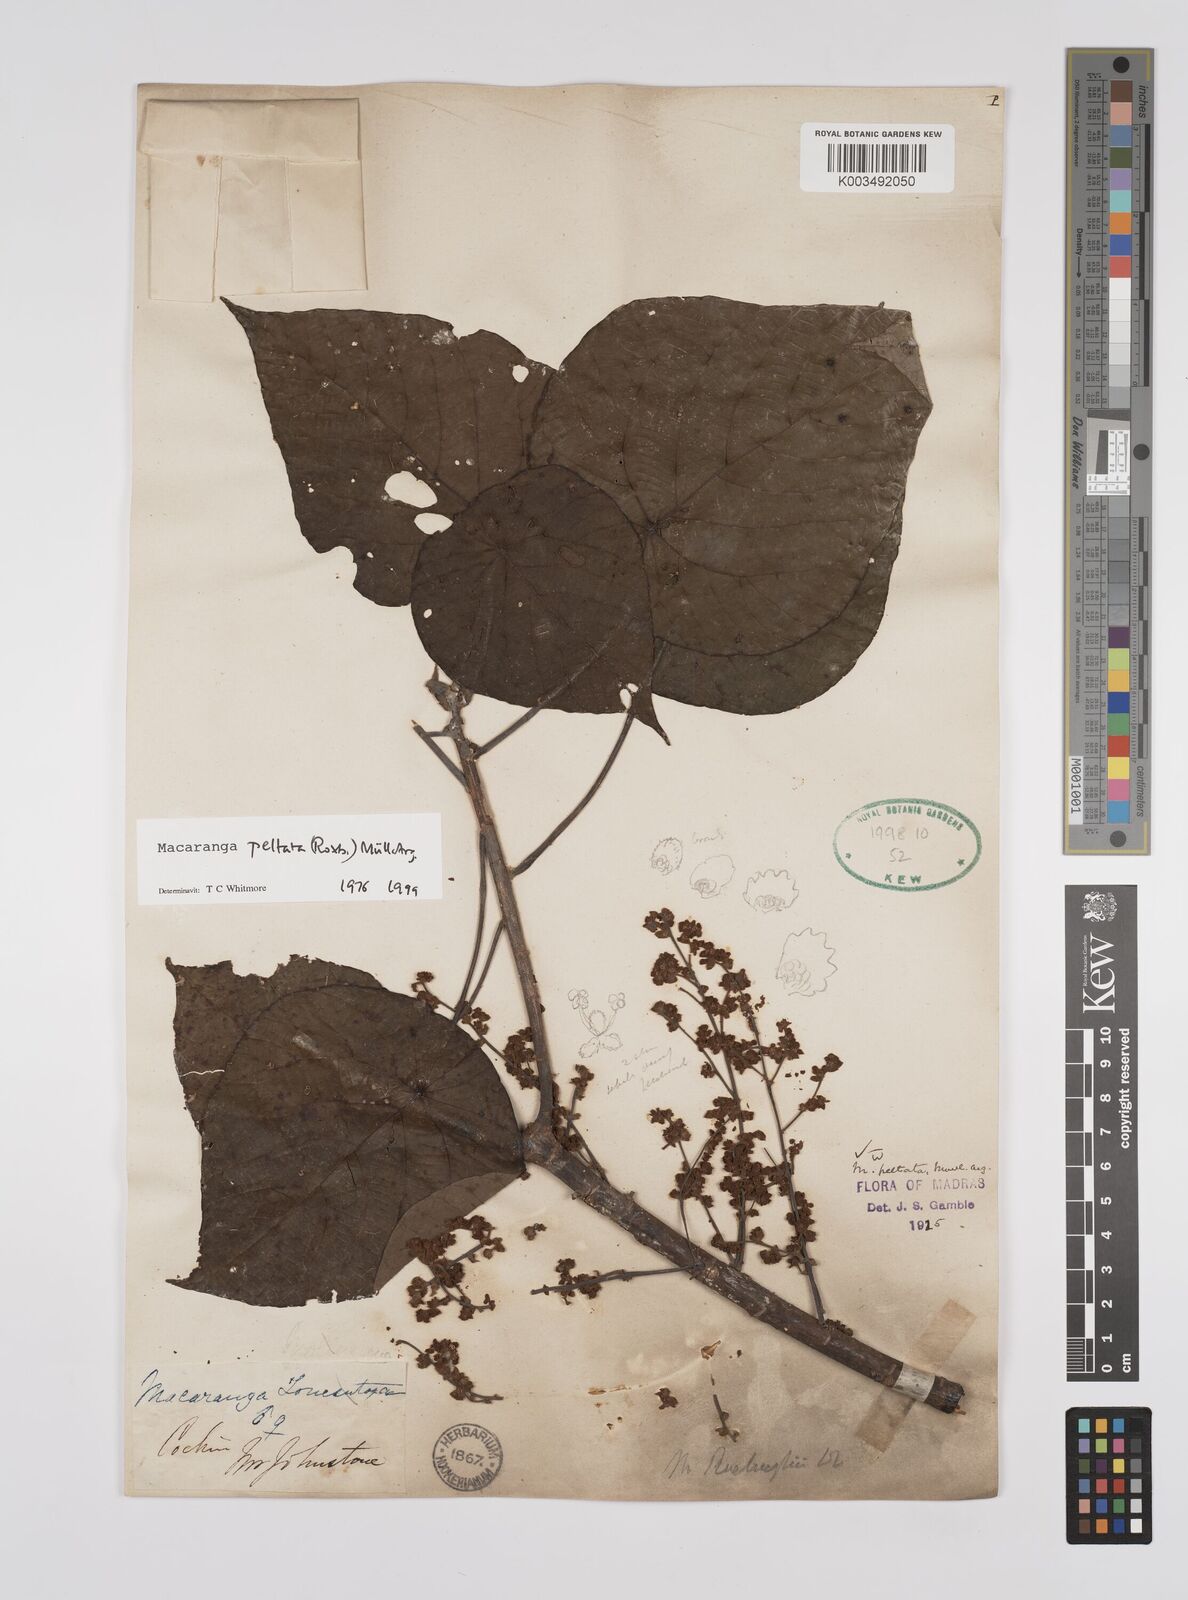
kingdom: Plantae
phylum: Tracheophyta
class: Magnoliopsida
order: Malpighiales
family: Euphorbiaceae
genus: Macaranga
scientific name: Macaranga peltata
